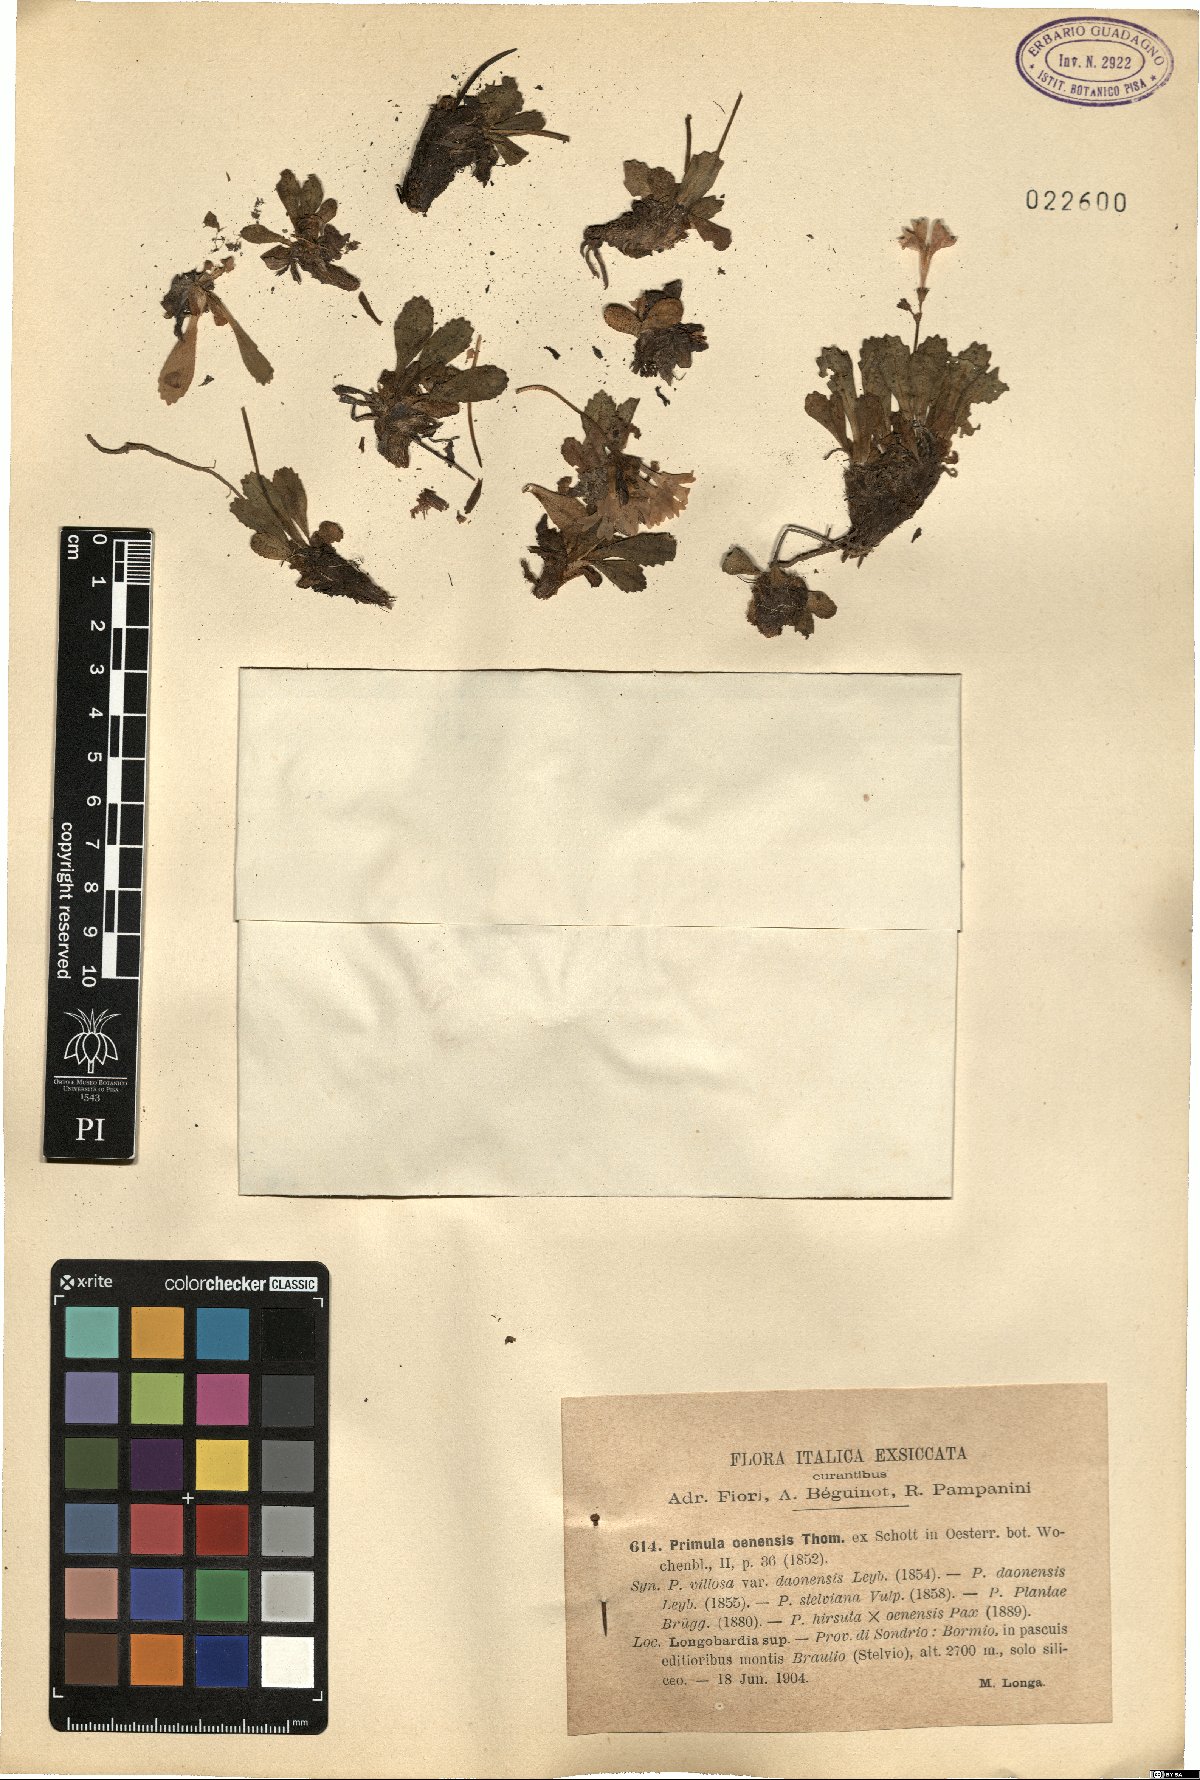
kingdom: Plantae
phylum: Tracheophyta
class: Magnoliopsida
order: Ericales
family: Primulaceae
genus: Primula
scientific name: Primula daonensis
